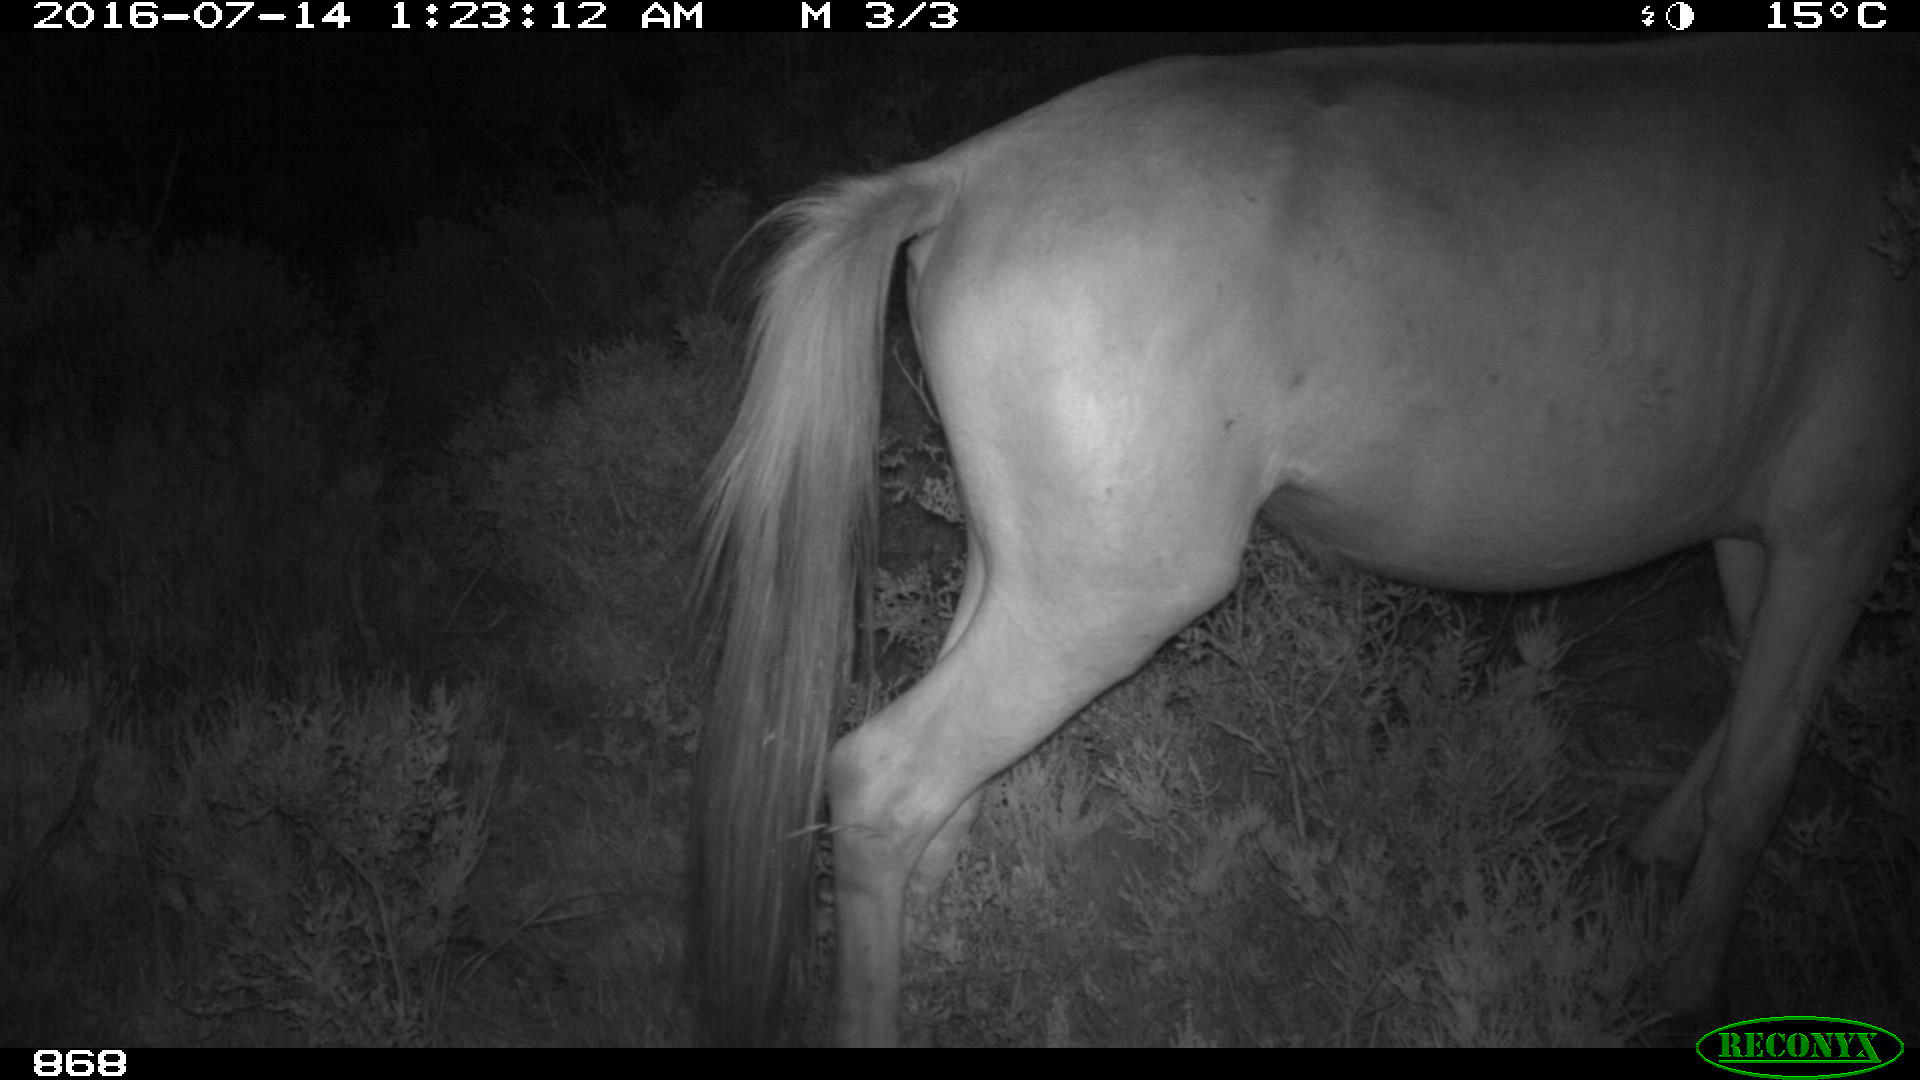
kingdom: Animalia
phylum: Chordata
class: Mammalia
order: Perissodactyla
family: Equidae
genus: Equus
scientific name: Equus caballus
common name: Horse
